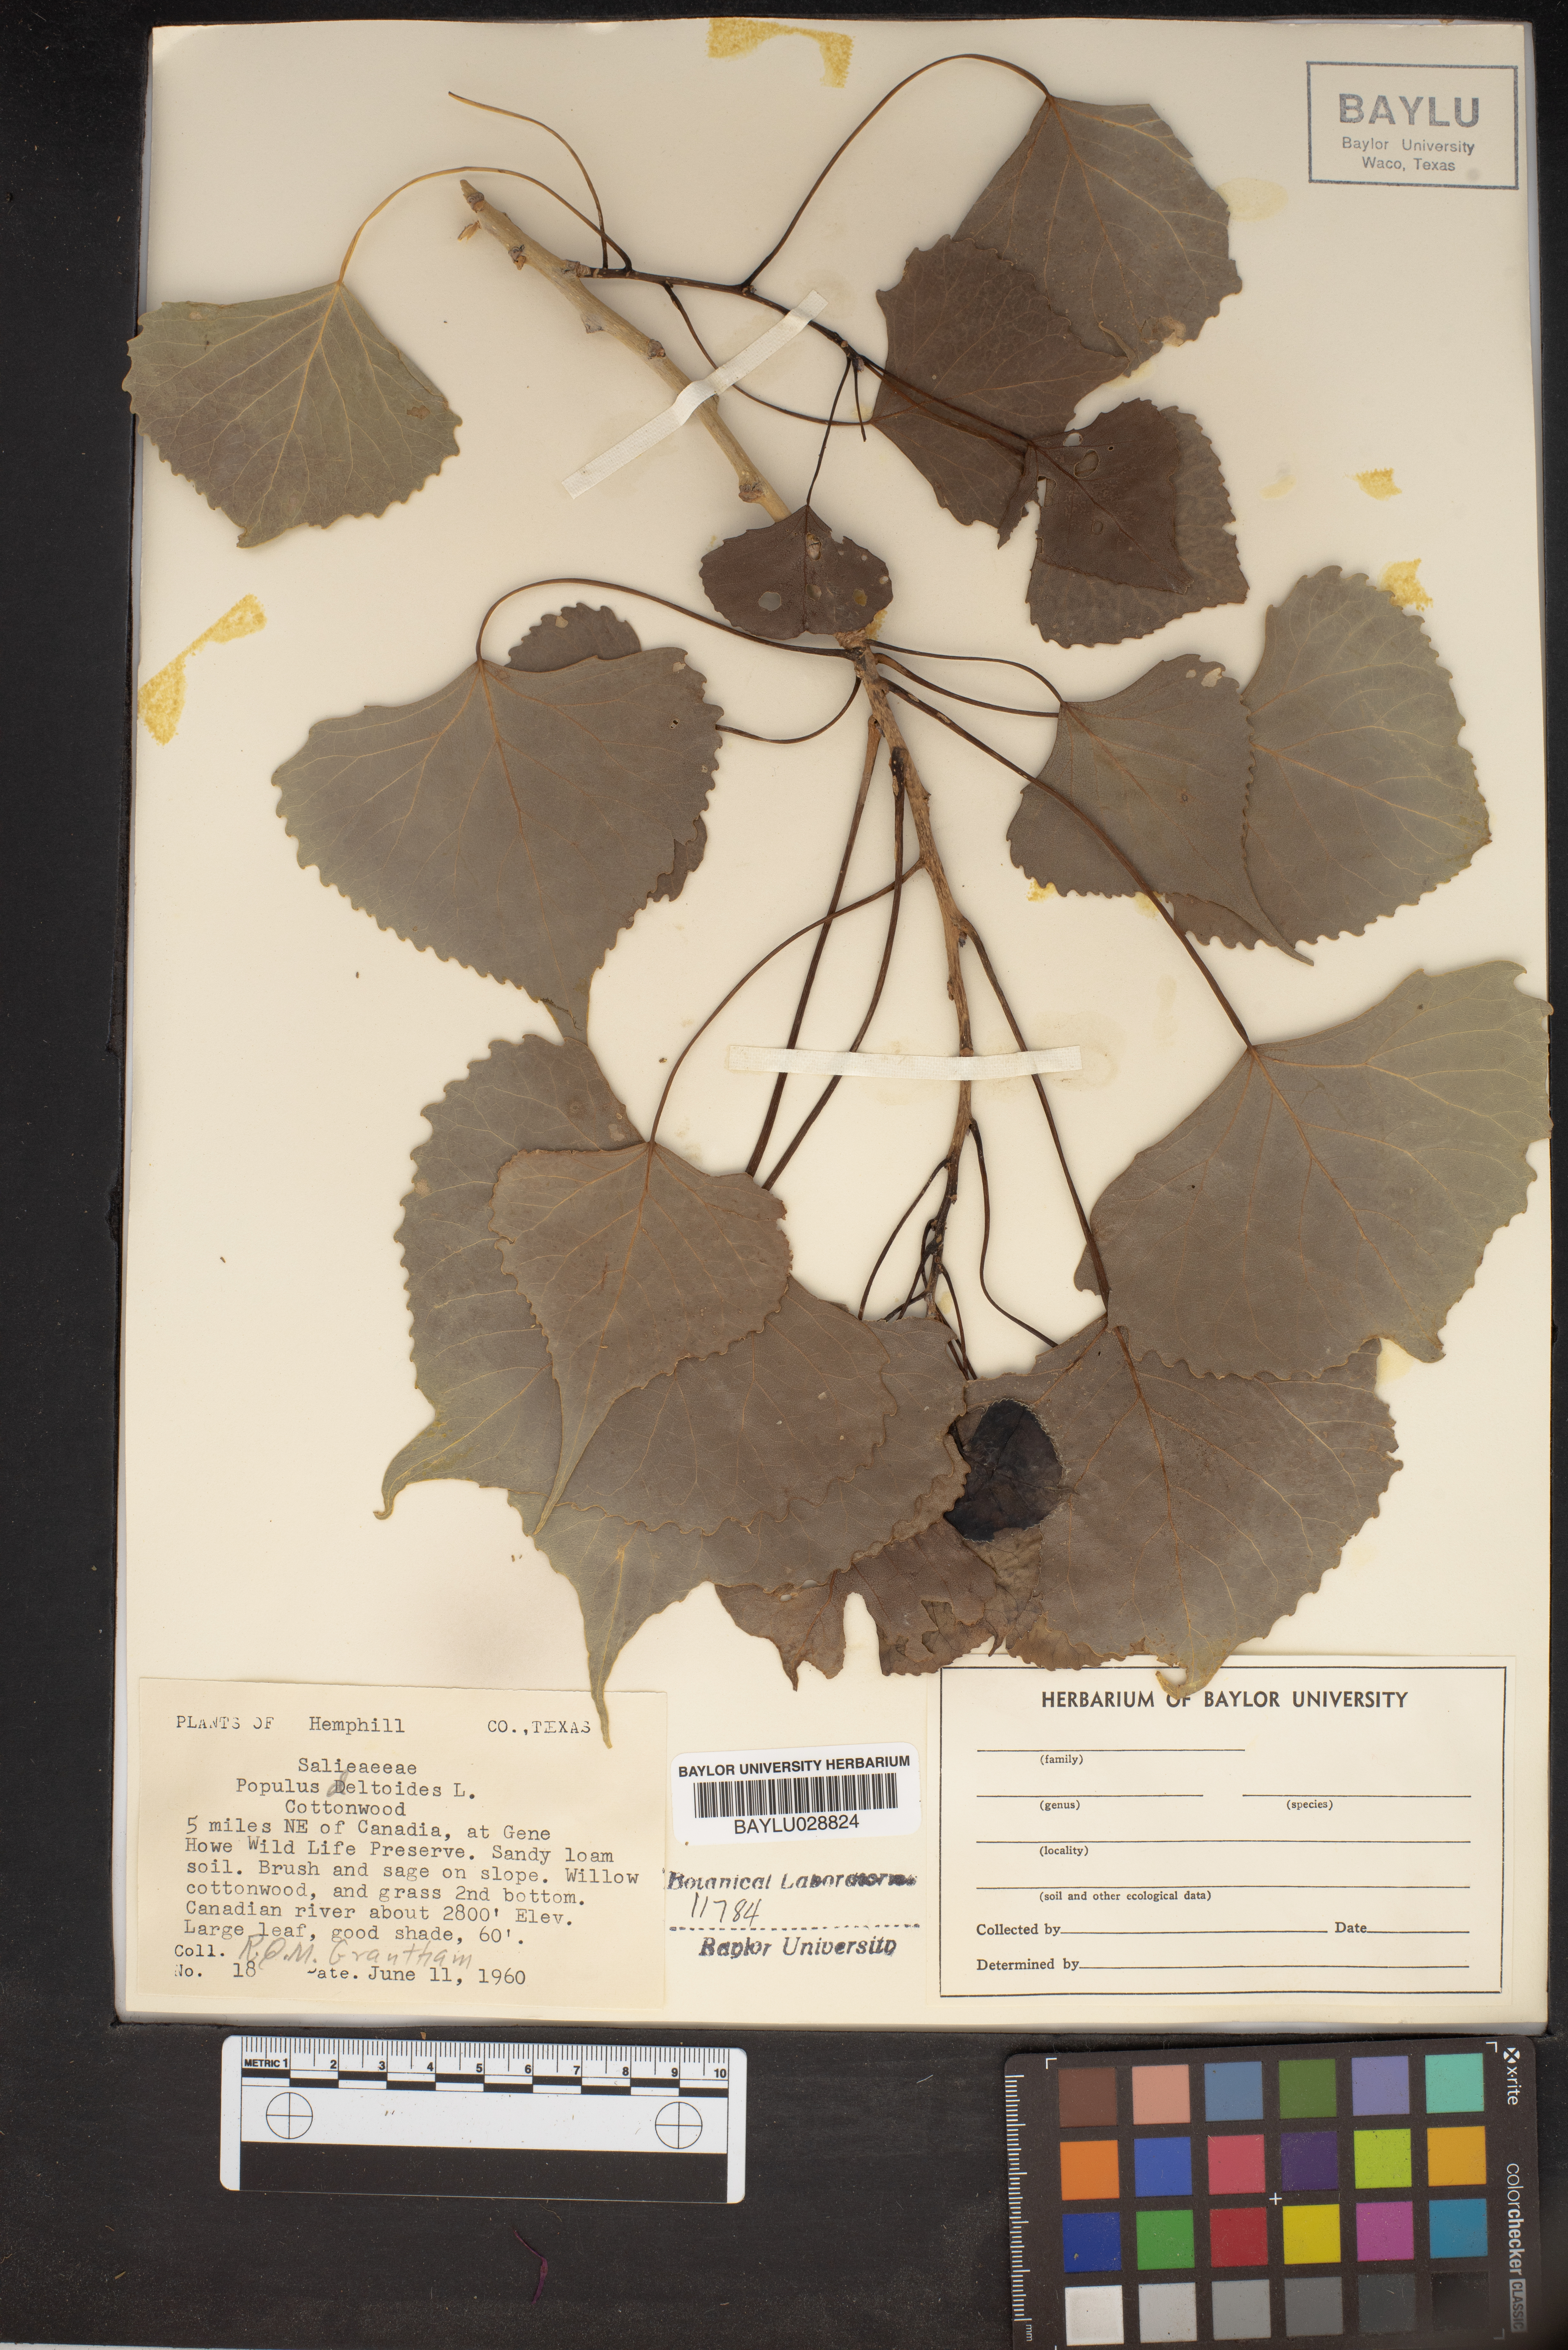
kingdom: Plantae
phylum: Tracheophyta
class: Magnoliopsida
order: Malpighiales
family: Salicaceae
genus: Populus
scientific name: Populus deltoides
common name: Eastern cottonwood
